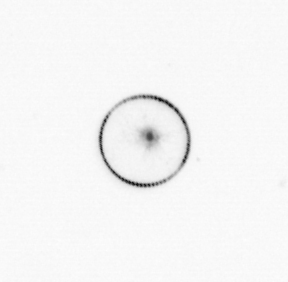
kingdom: Chromista
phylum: Myzozoa
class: Dinophyceae
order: Noctilucales
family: Noctilucaceae
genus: Noctiluca
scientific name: Noctiluca scintillans
